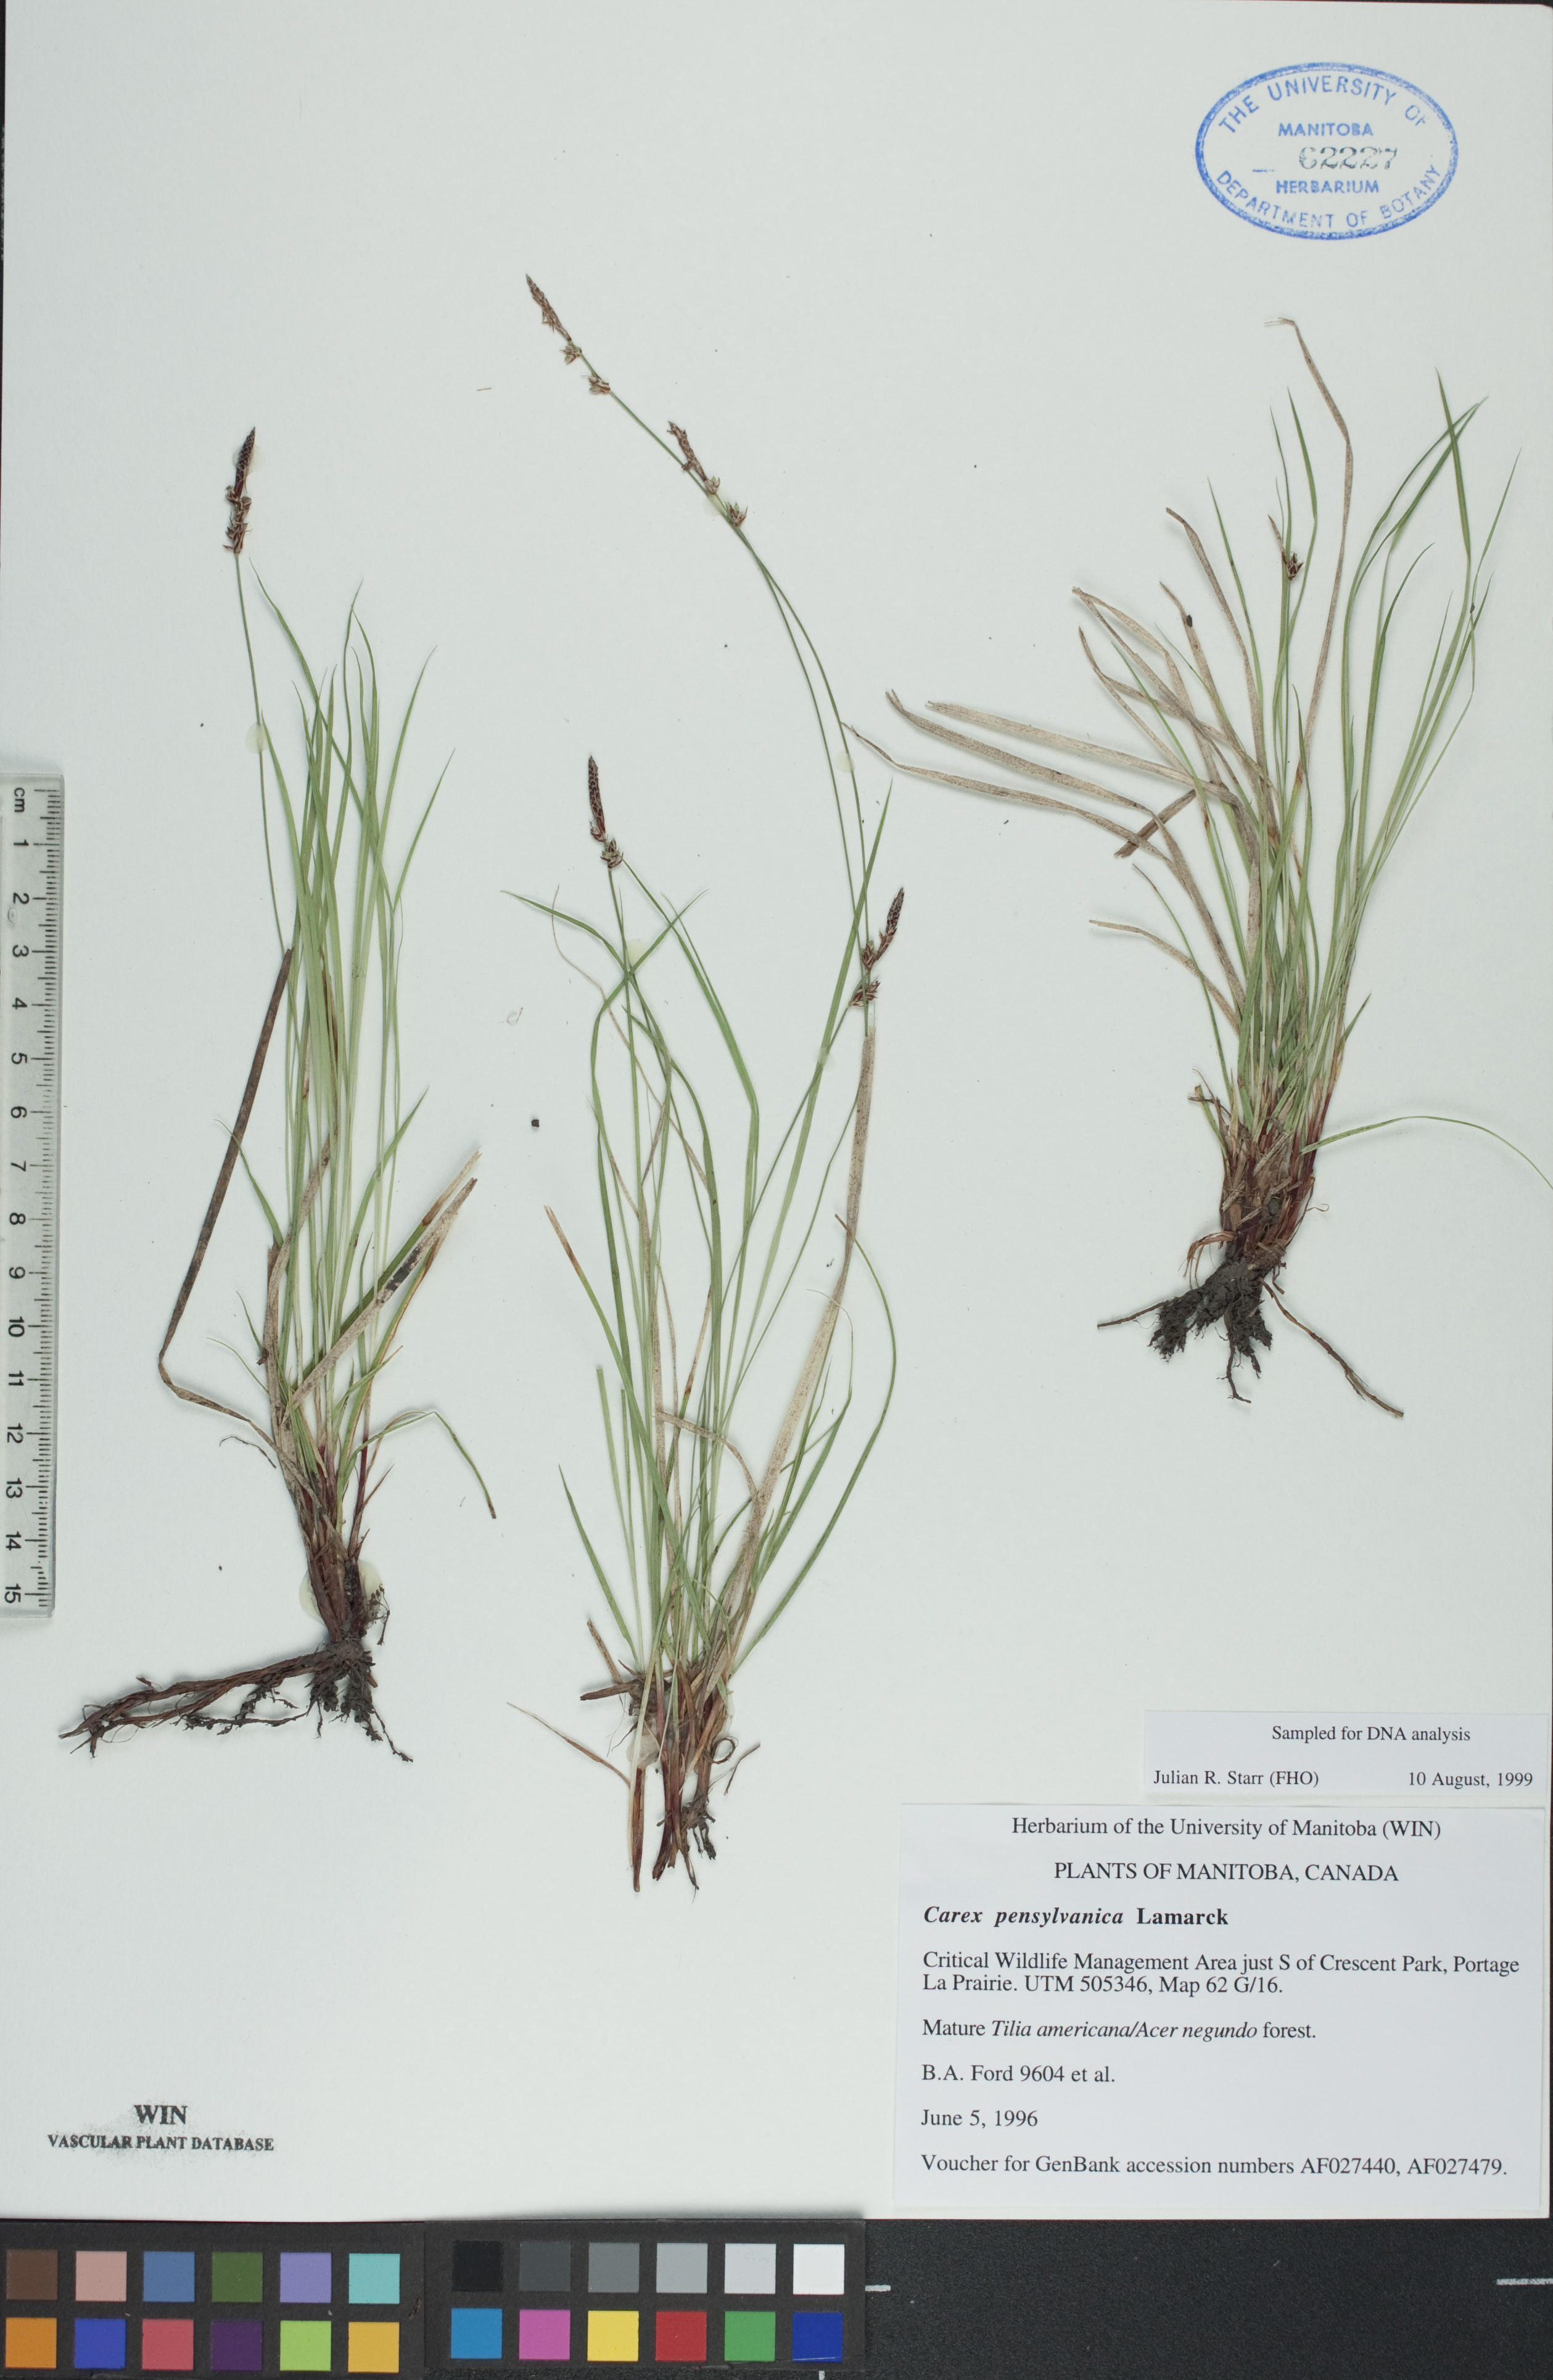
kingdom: Plantae
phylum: Tracheophyta
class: Liliopsida
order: Poales
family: Cyperaceae
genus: Carex
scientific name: Carex pensylvanica
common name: Common oak sedge
